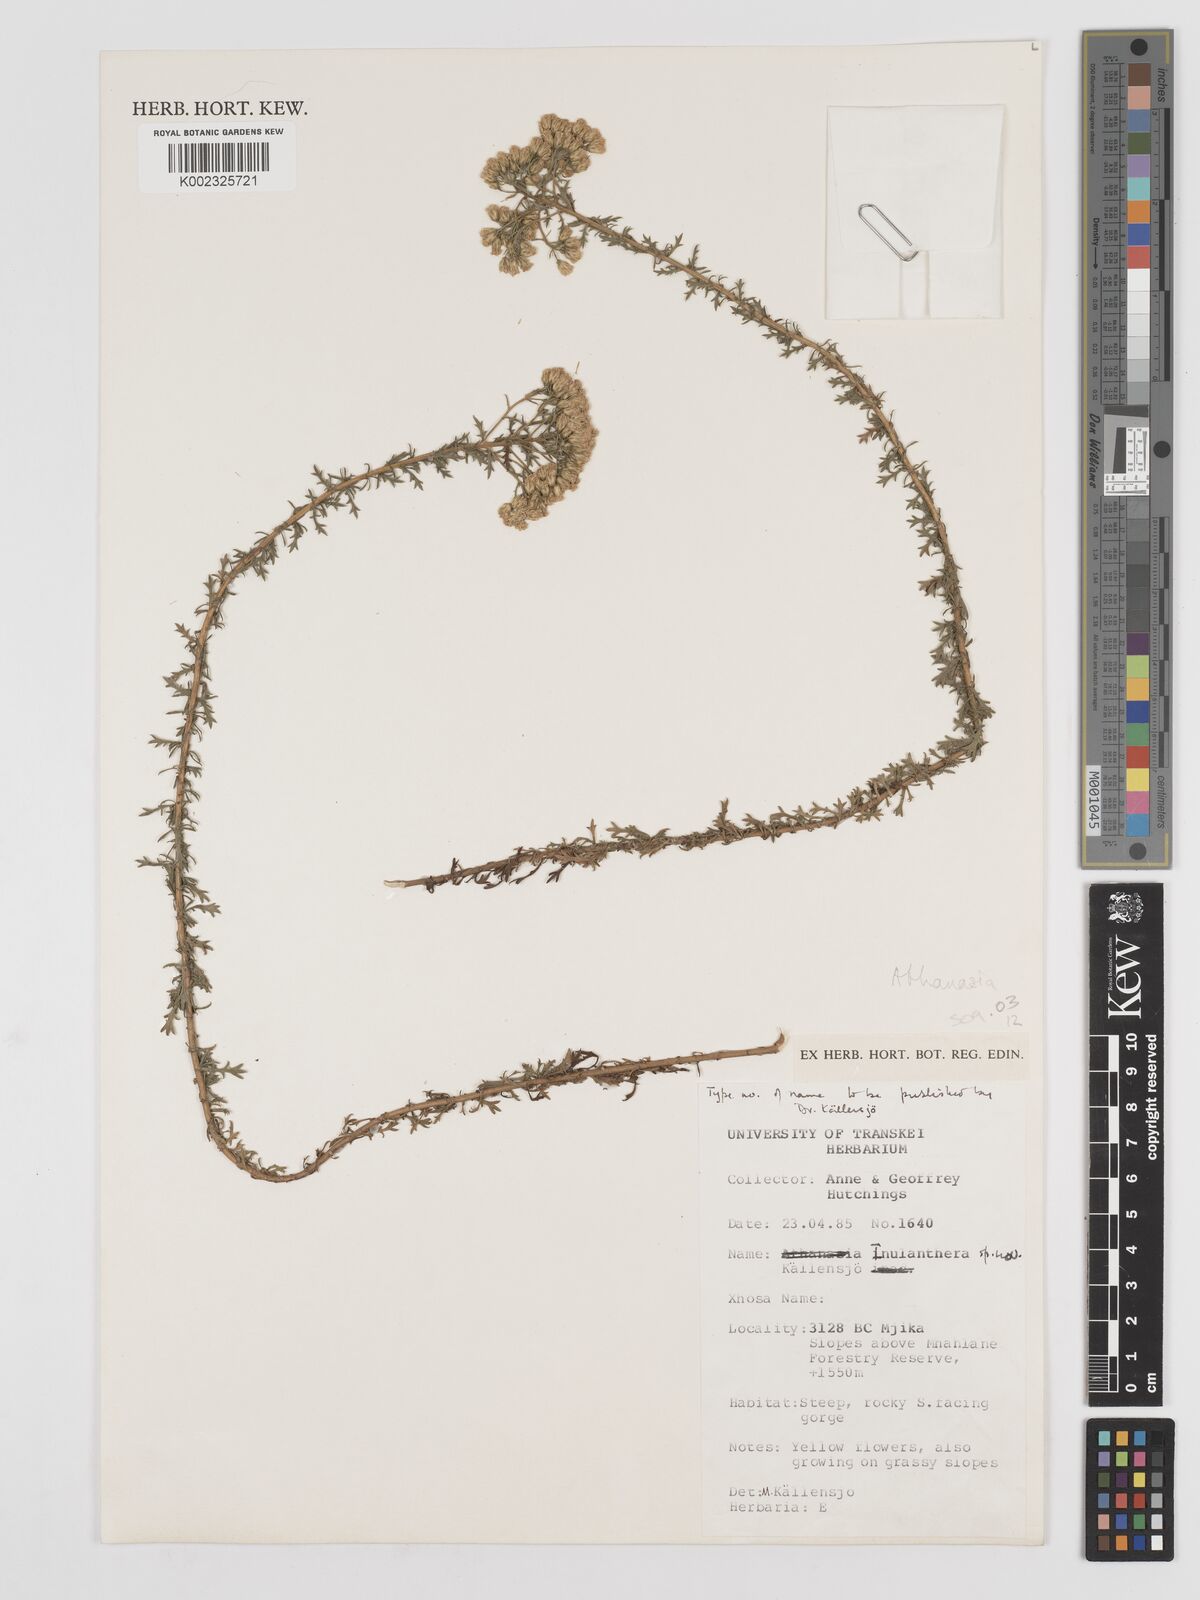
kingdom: Plantae
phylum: Tracheophyta
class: Magnoliopsida
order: Asterales
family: Asteraceae
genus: Inulanthera
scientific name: Inulanthera
